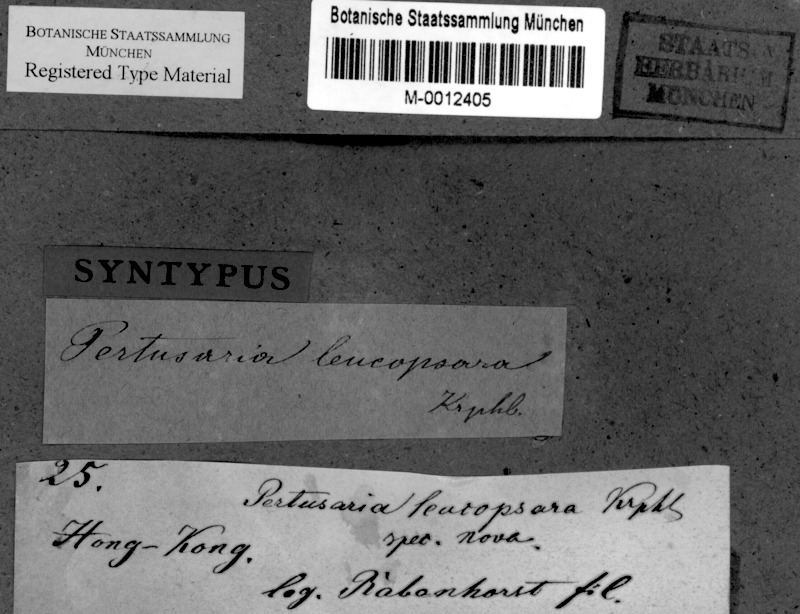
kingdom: Fungi
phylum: Ascomycota
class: Lecanoromycetes
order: Pertusariales
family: Pertusariaceae
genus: Lepra
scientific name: Lepra leucopsara
